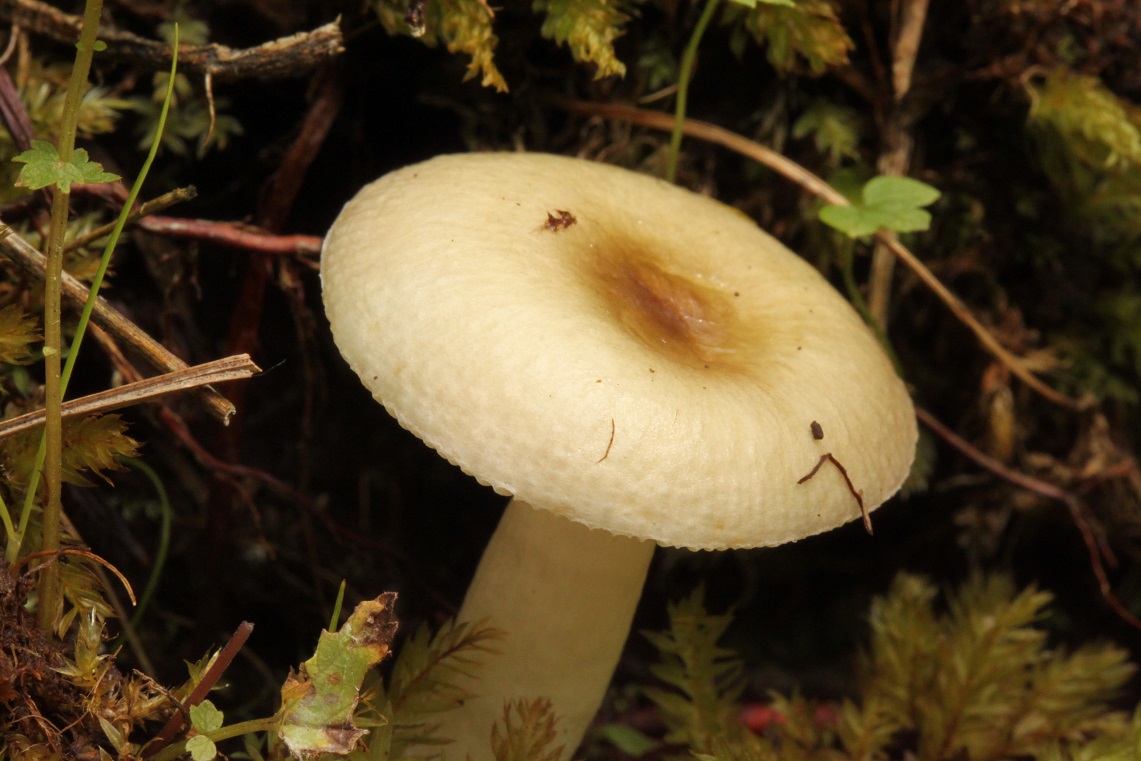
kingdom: Fungi
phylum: Basidiomycota
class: Agaricomycetes
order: Russulales
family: Russulaceae
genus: Russula
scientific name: Russula nitida
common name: året skørhat
